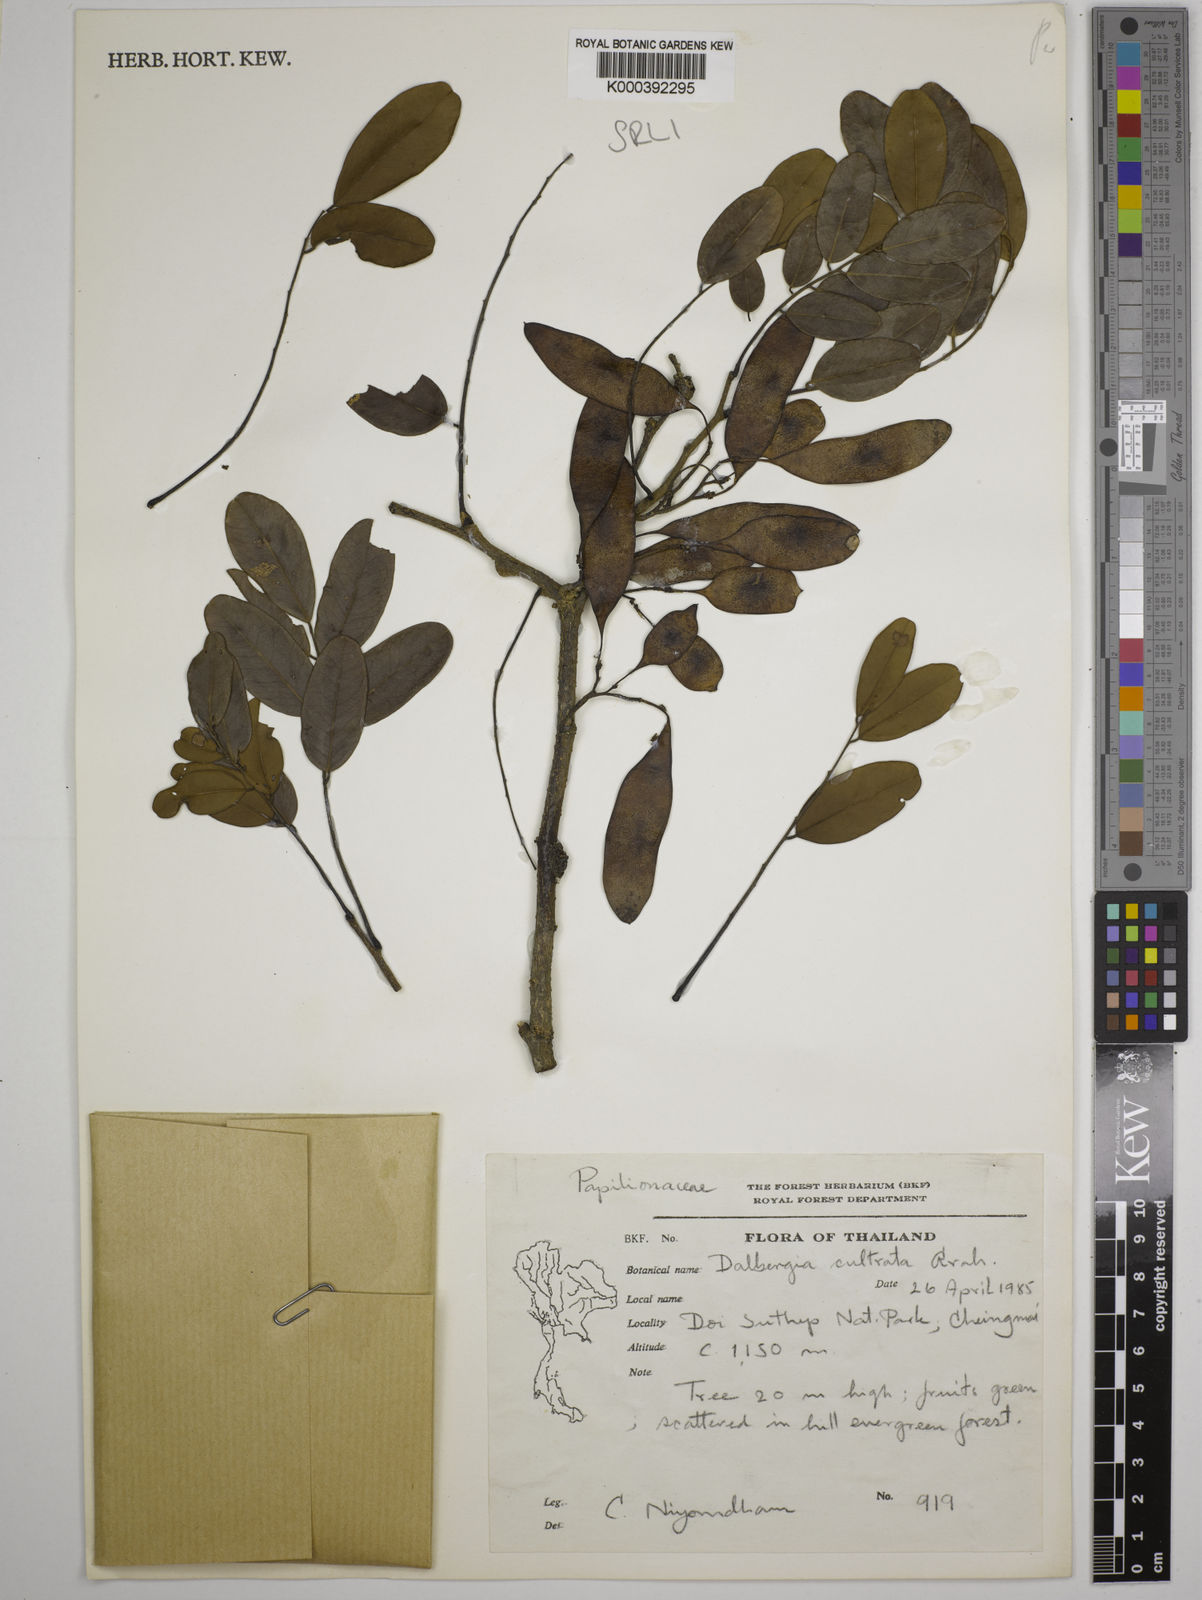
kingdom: Plantae
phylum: Tracheophyta
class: Magnoliopsida
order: Fabales
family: Fabaceae
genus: Dalbergia
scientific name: Dalbergia
